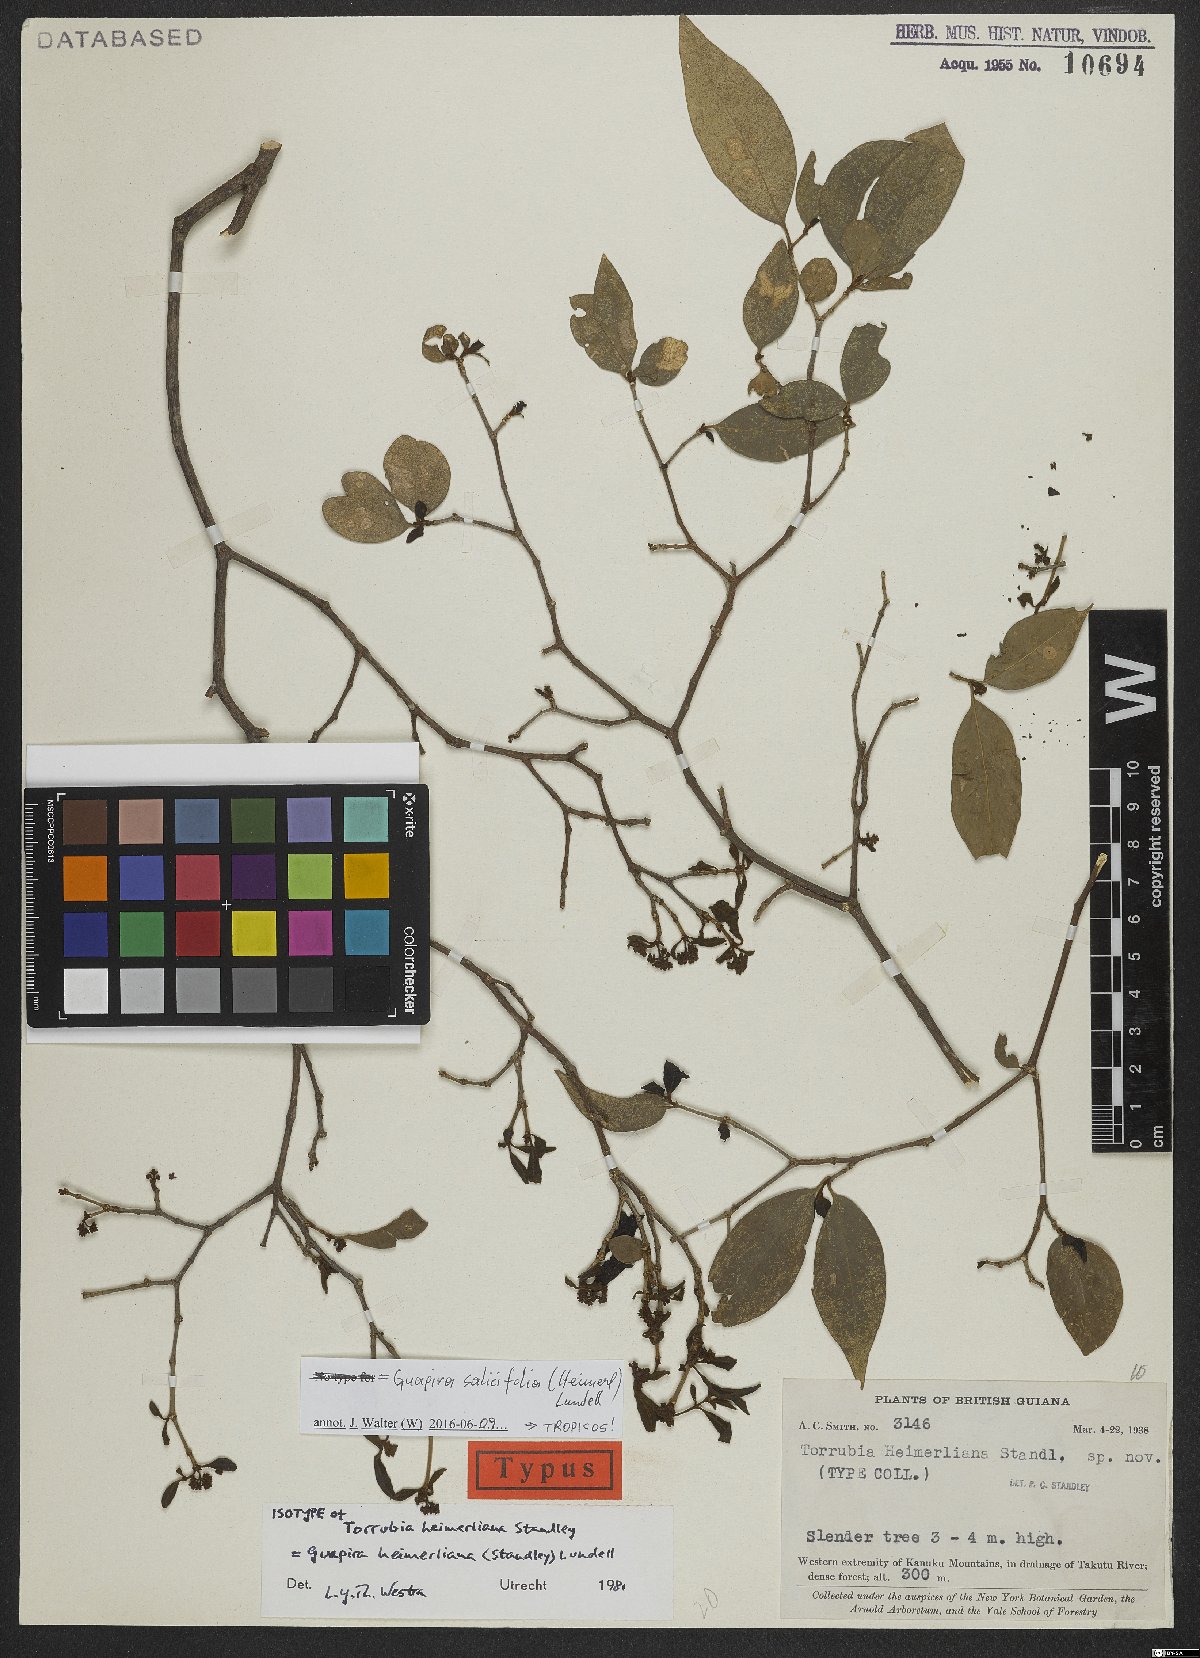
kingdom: Plantae
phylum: Tracheophyta
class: Magnoliopsida
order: Caryophyllales
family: Nyctaginaceae
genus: Guapira
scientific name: Guapira salicifolia
